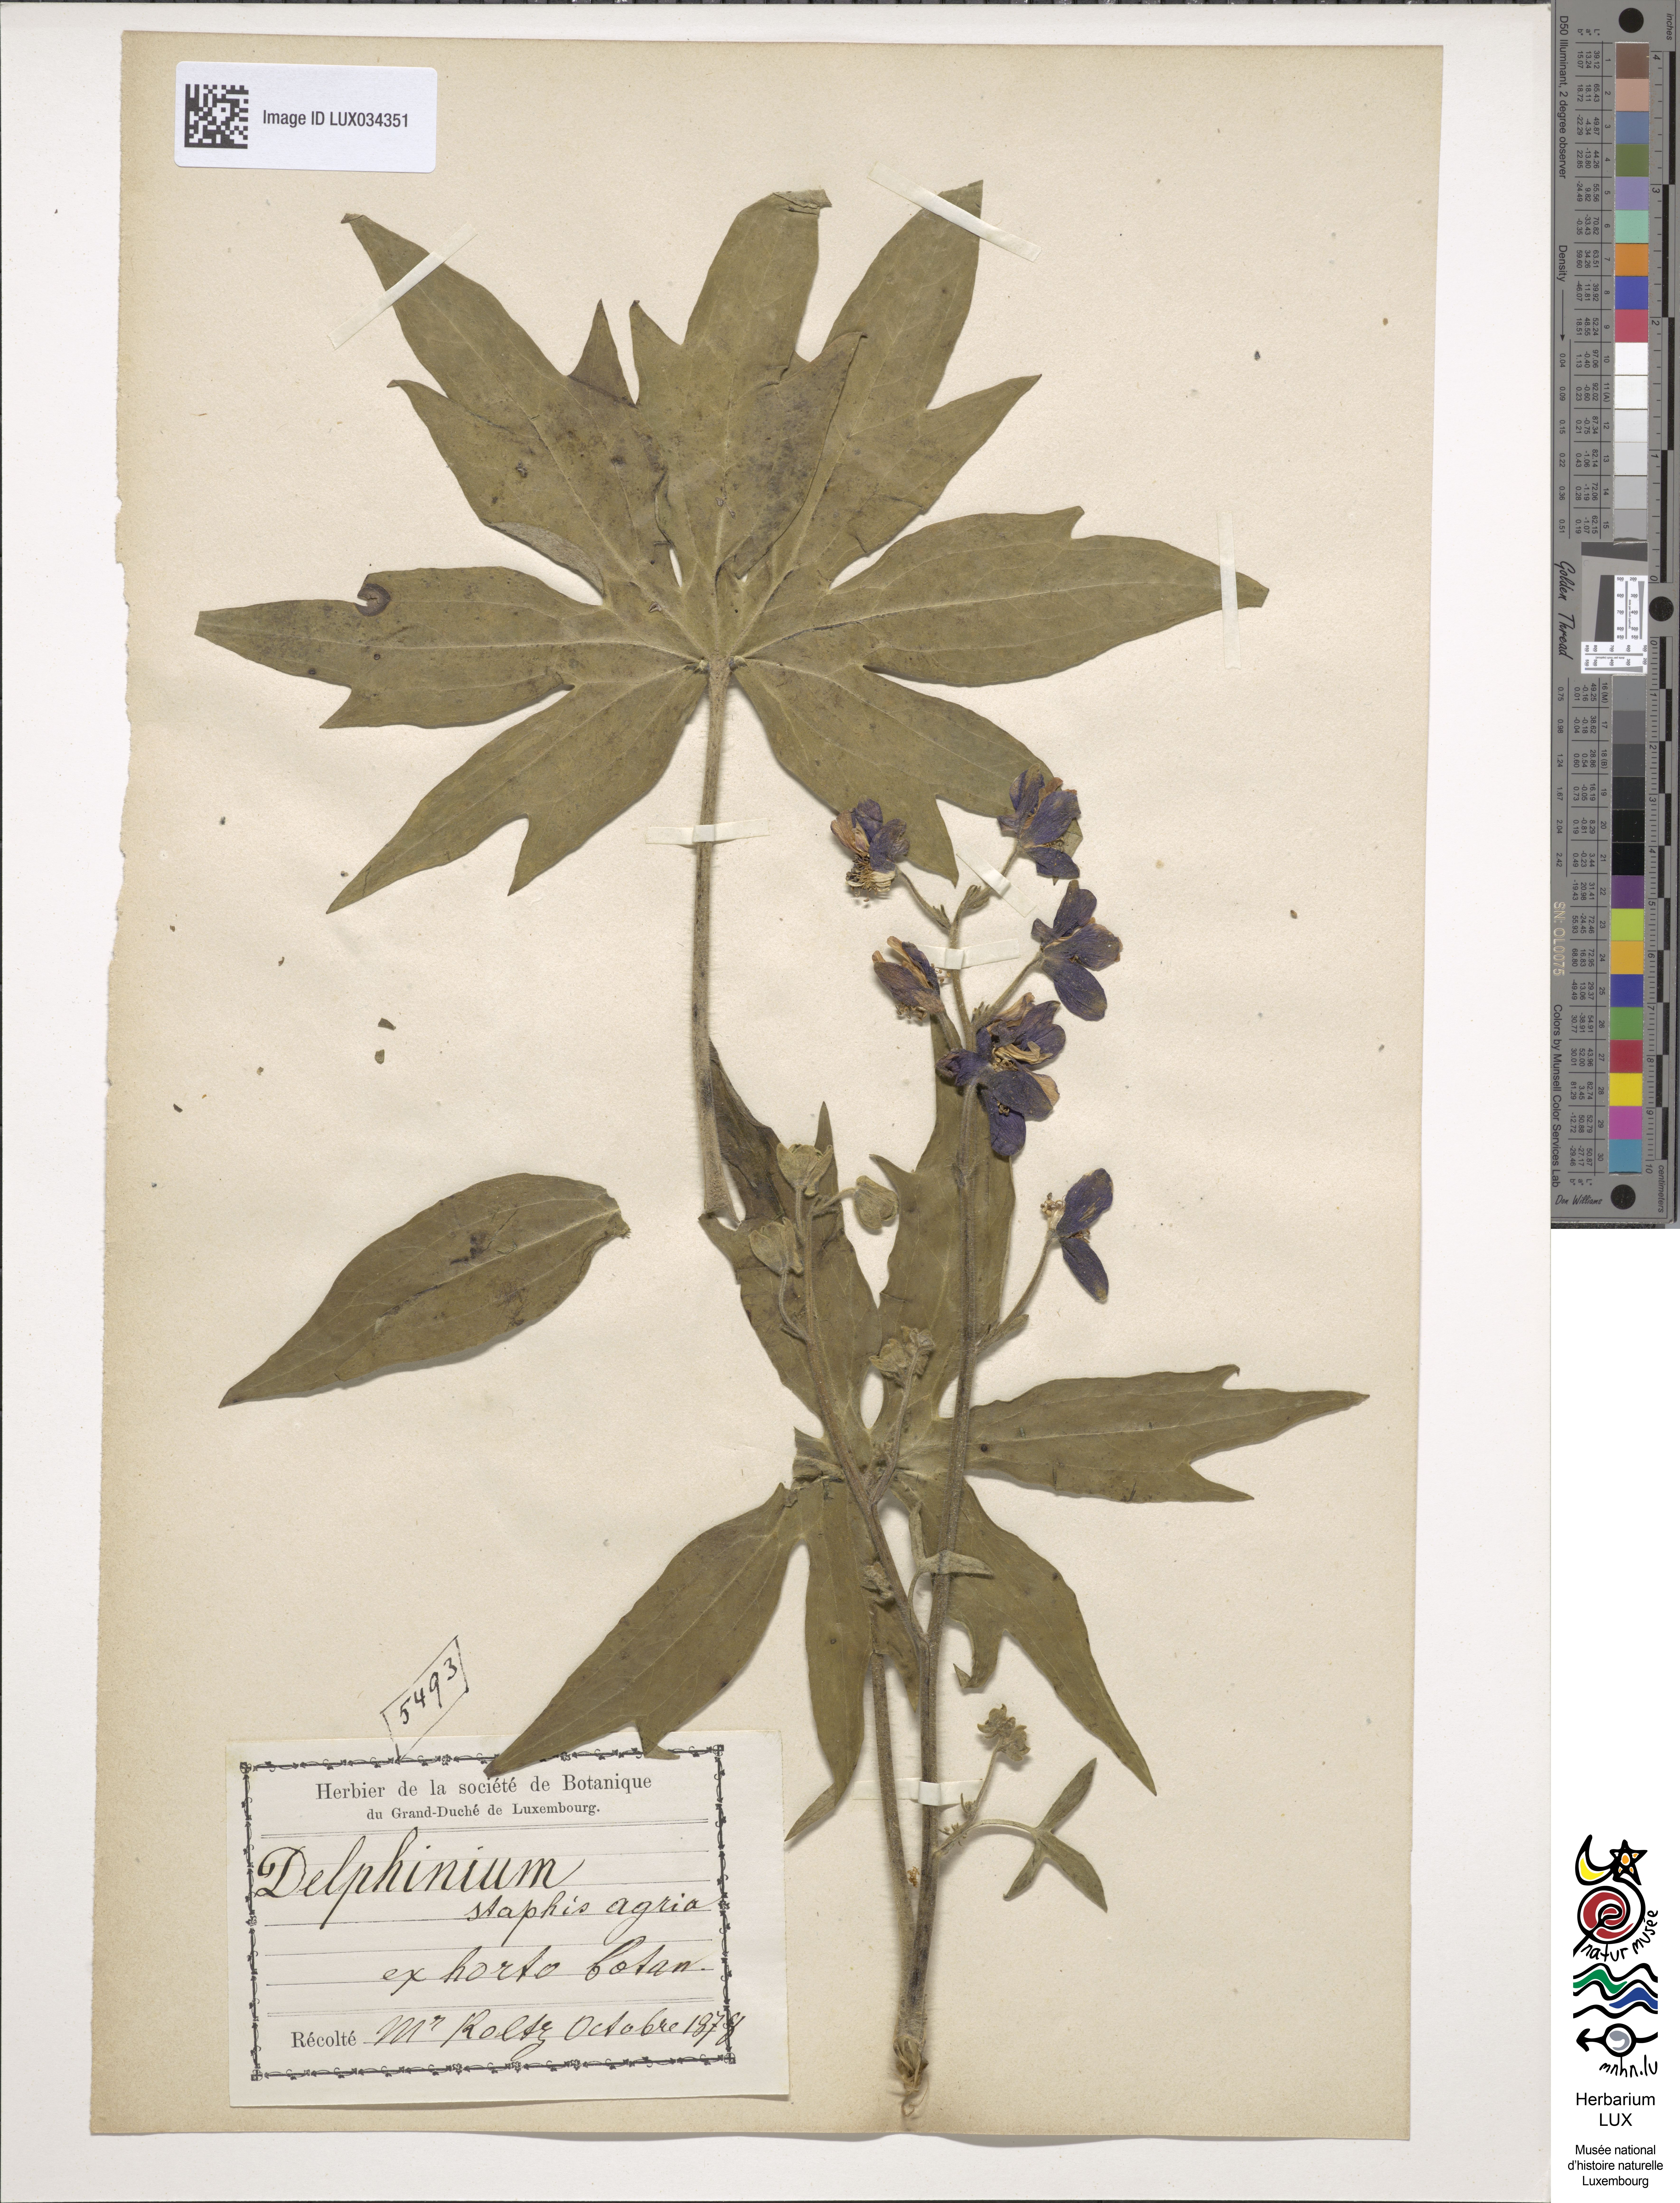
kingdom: Plantae
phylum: Tracheophyta
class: Magnoliopsida
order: Ranunculales
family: Ranunculaceae
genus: Staphisagria
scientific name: Staphisagria macrosperma
